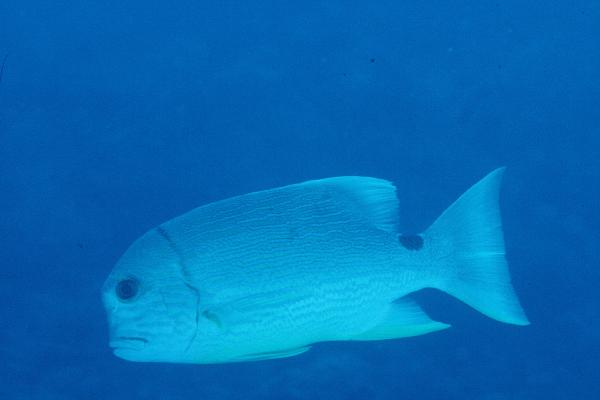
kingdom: Animalia
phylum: Chordata
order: Perciformes
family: Lutjanidae
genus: Symphorichthys
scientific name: Symphorichthys spilurus
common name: Sailfin snapper
